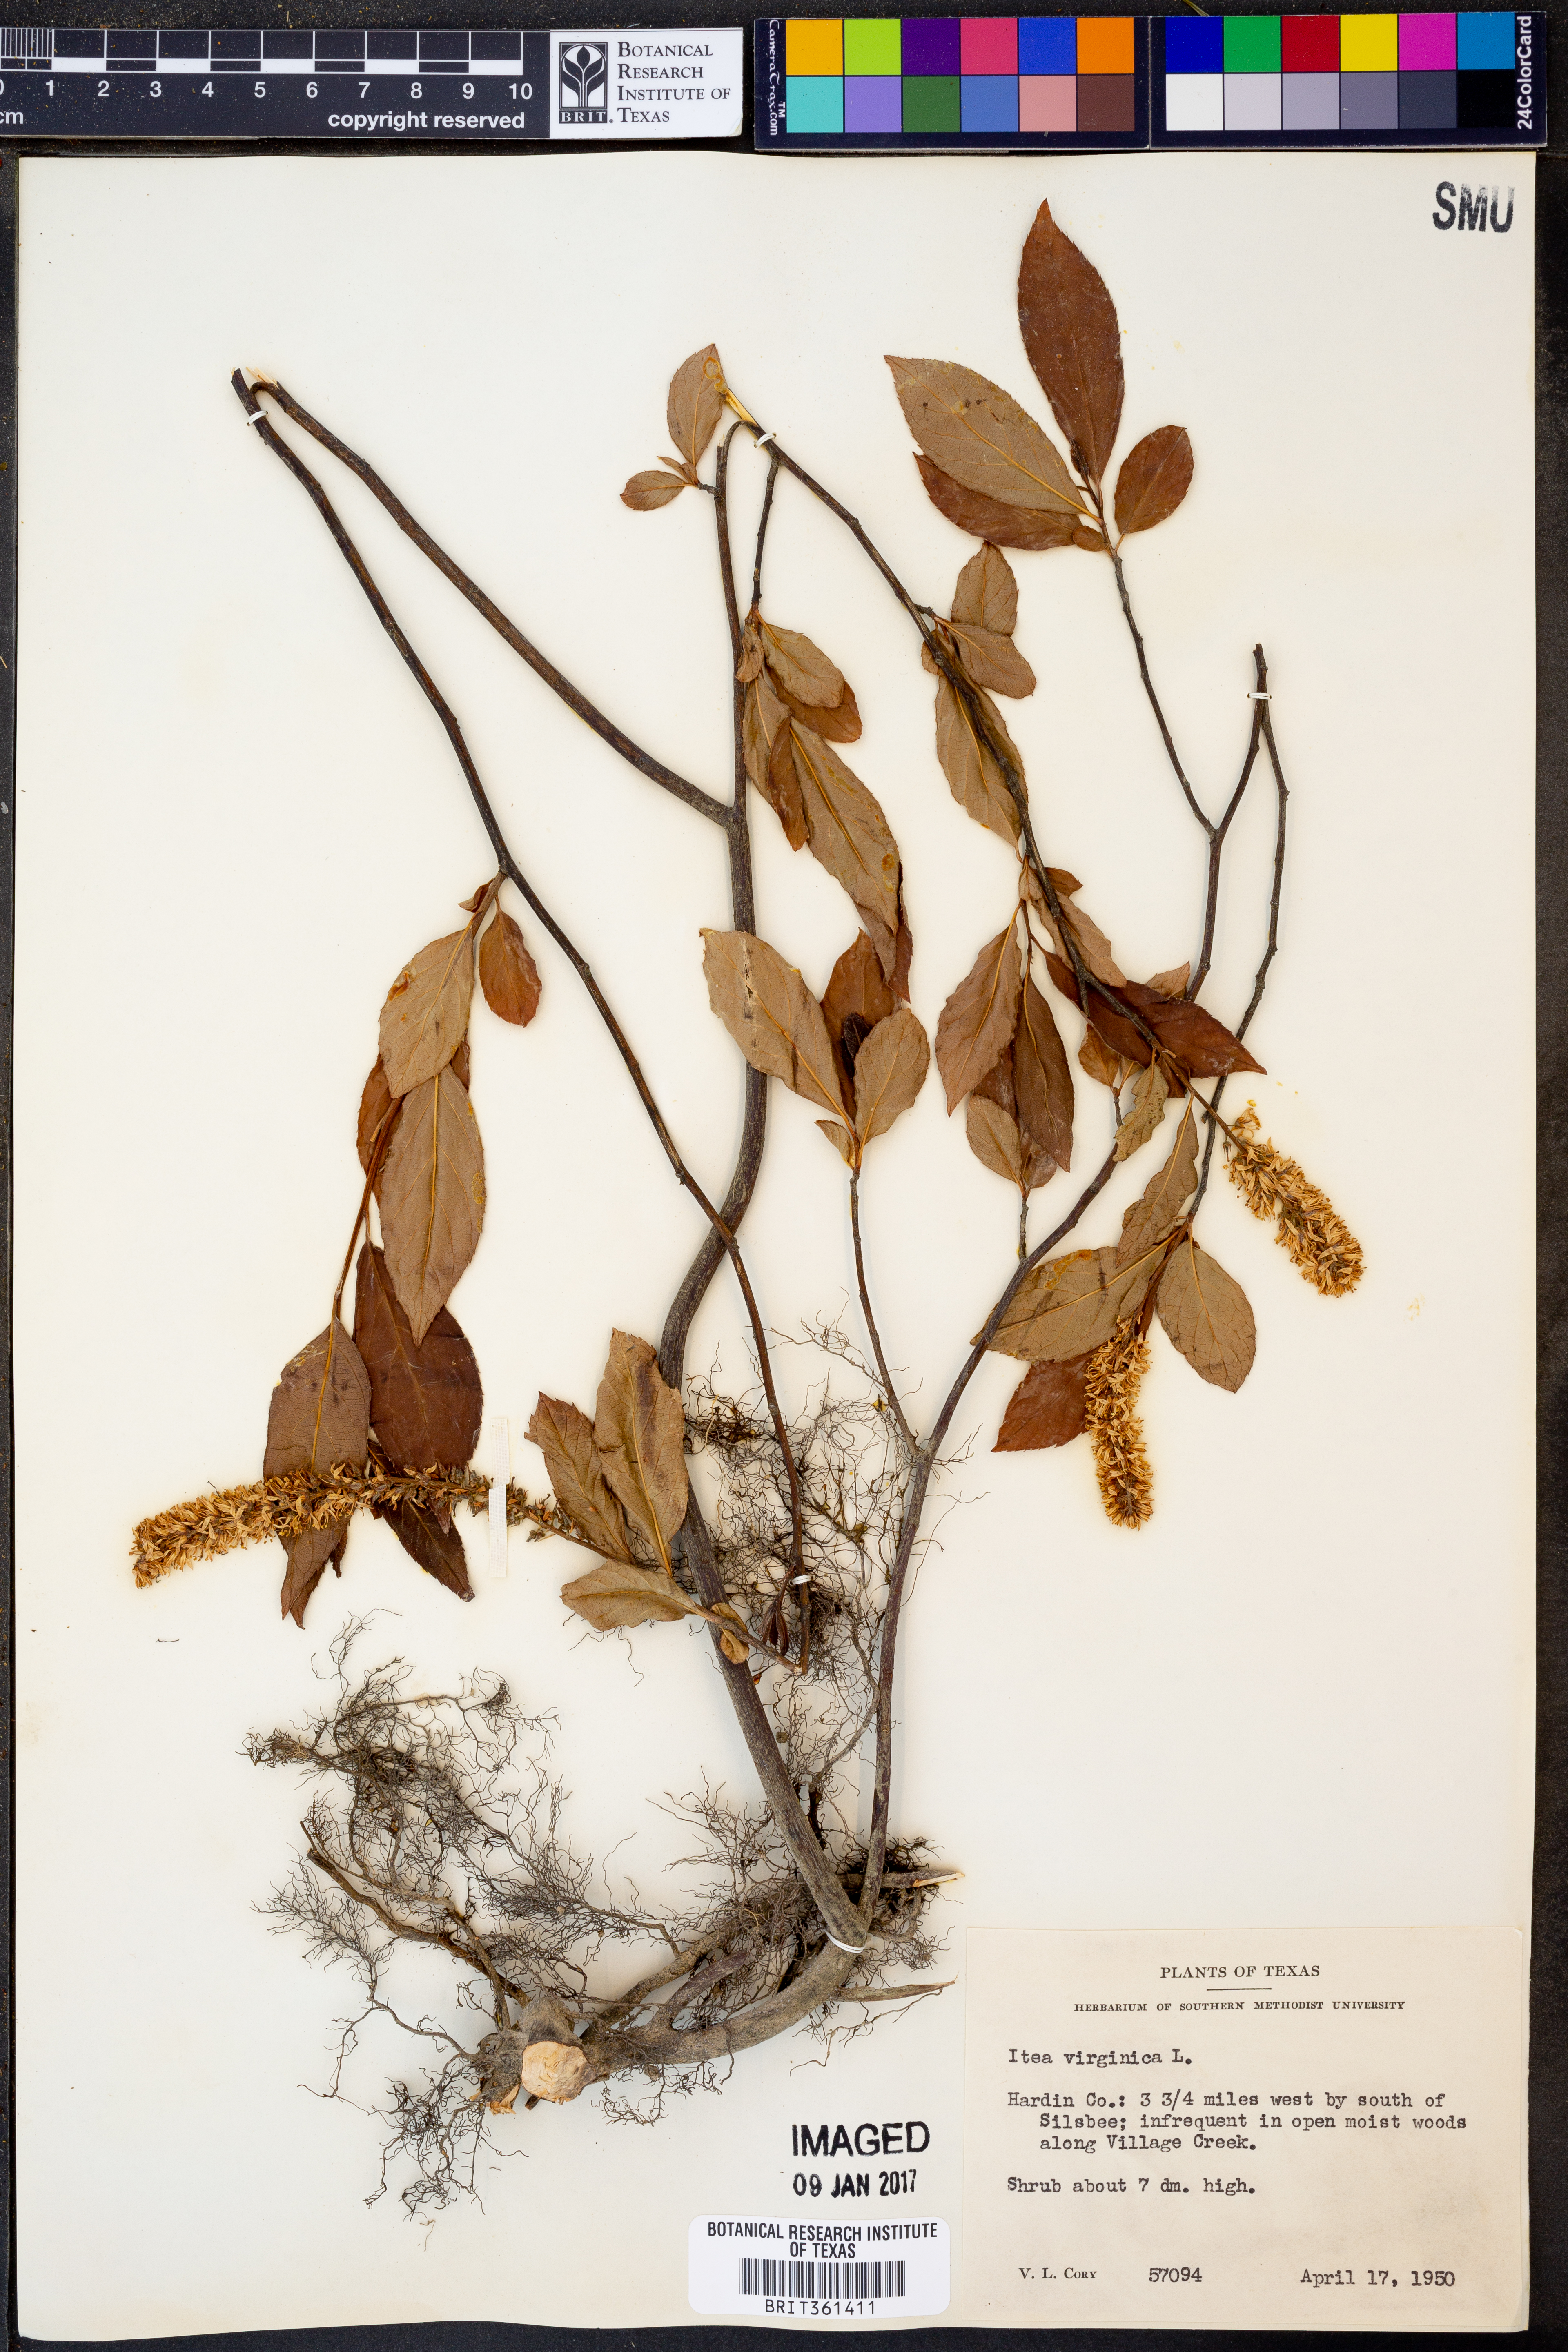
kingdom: Plantae
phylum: Tracheophyta
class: Magnoliopsida
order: Saxifragales
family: Iteaceae
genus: Itea
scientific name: Itea virginica
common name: Sweetspire
